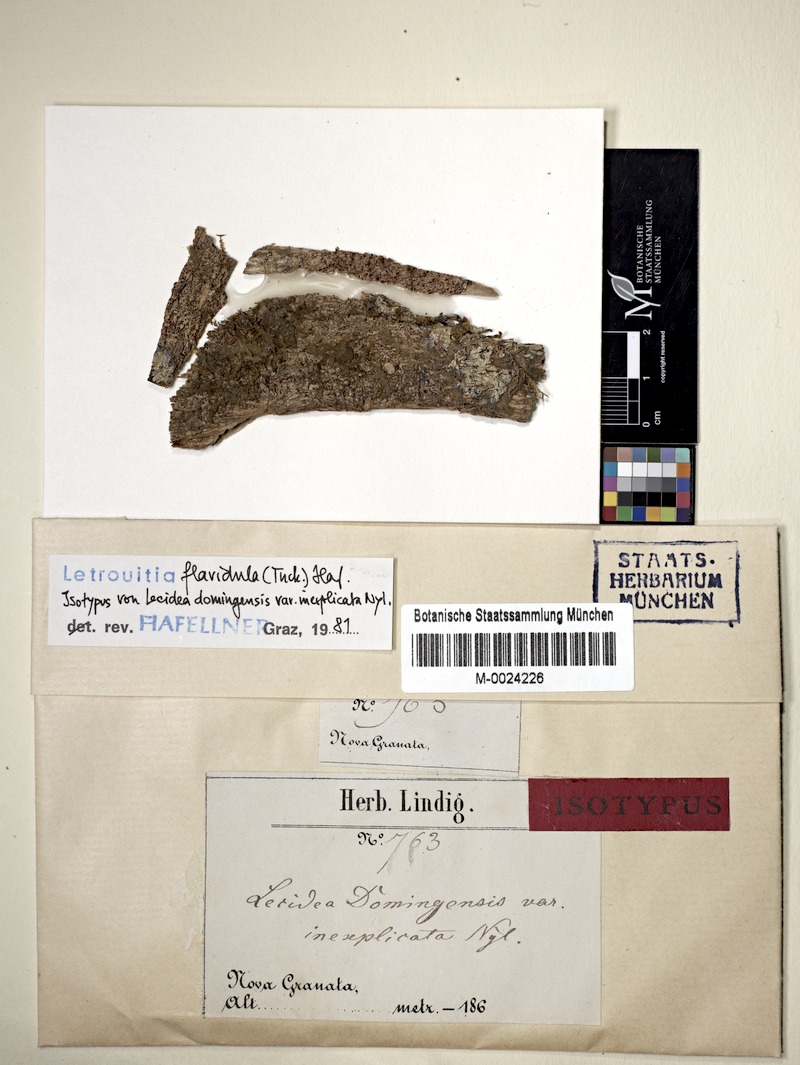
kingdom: Fungi
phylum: Ascomycota
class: Lecanoromycetes
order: Teloschistales
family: Letrouitiaceae
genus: Letrouitia
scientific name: Letrouitia flavidula
